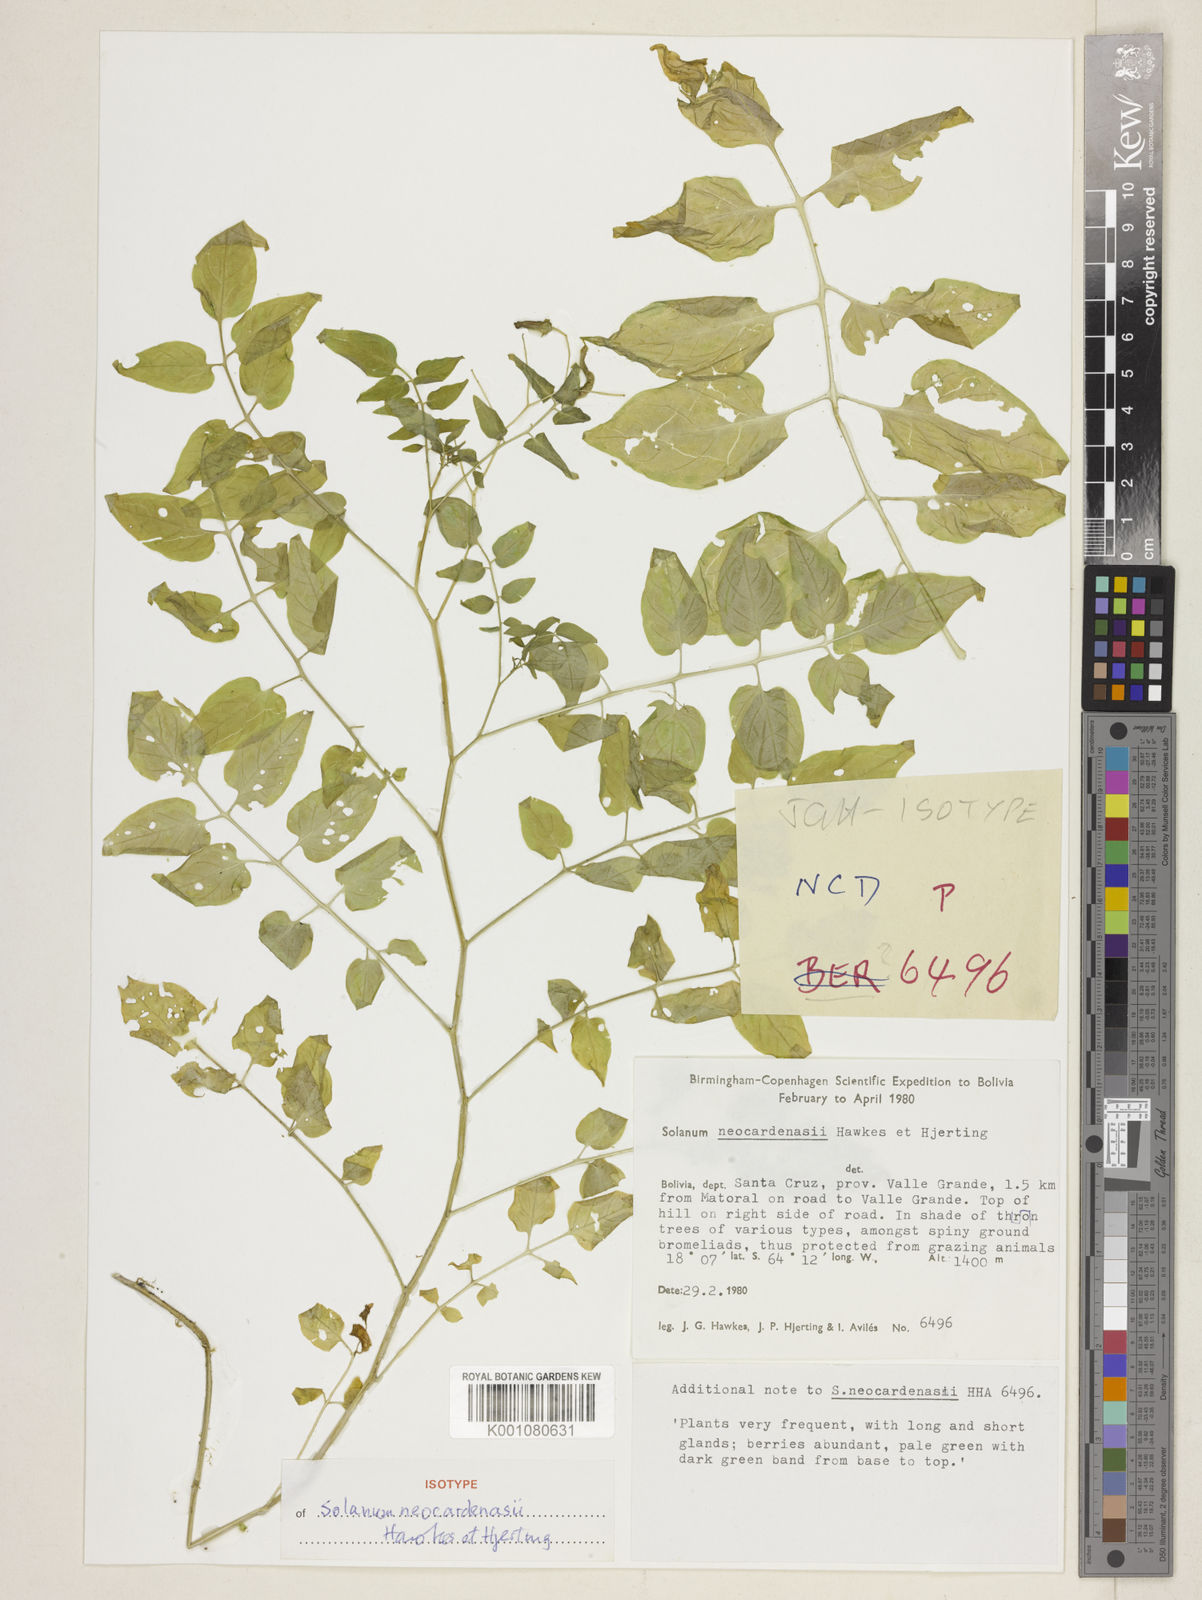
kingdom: Plantae
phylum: Tracheophyta
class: Magnoliopsida
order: Solanales
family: Solanaceae
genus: Solanum
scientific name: Solanum neocardenasii
